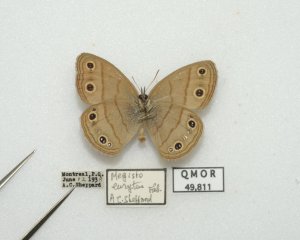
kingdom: Animalia
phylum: Arthropoda
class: Insecta
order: Lepidoptera
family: Nymphalidae
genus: Euptychia
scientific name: Euptychia cymela
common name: Little Wood Satyr
